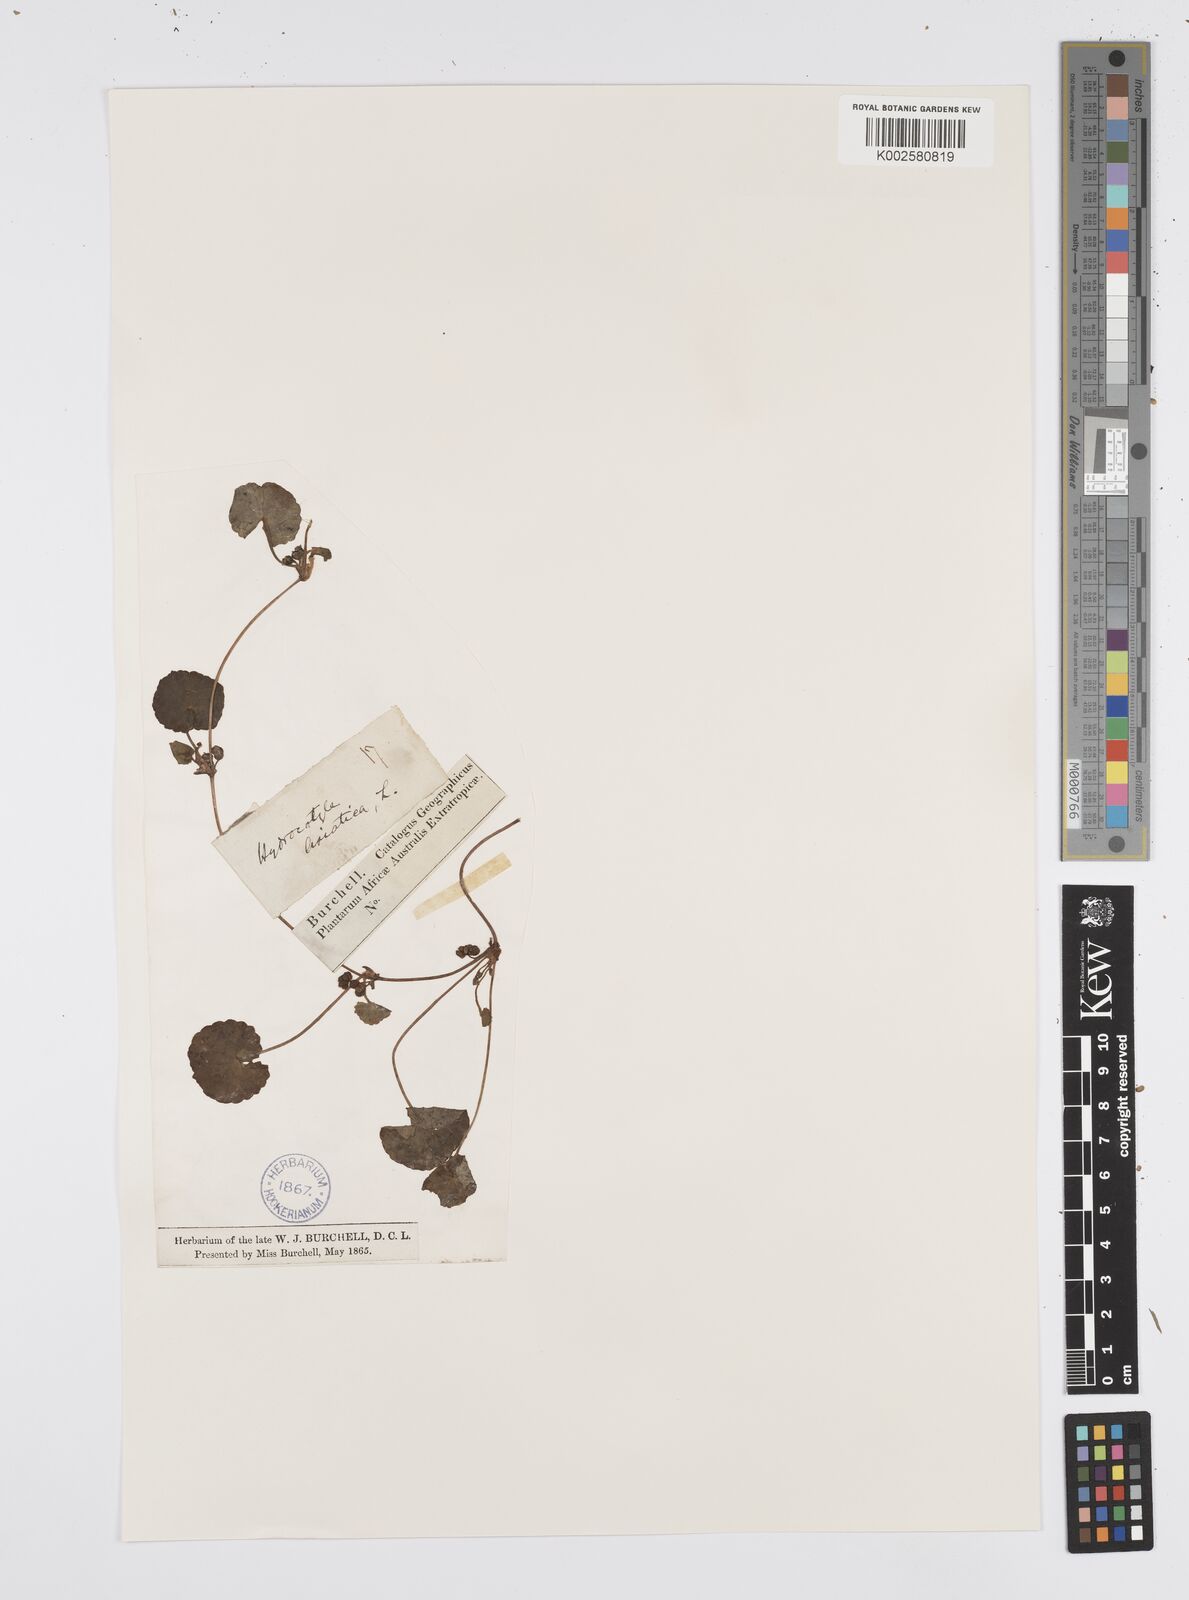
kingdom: Plantae
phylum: Tracheophyta
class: Magnoliopsida
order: Apiales
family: Apiaceae
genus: Centella
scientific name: Centella coriacea
